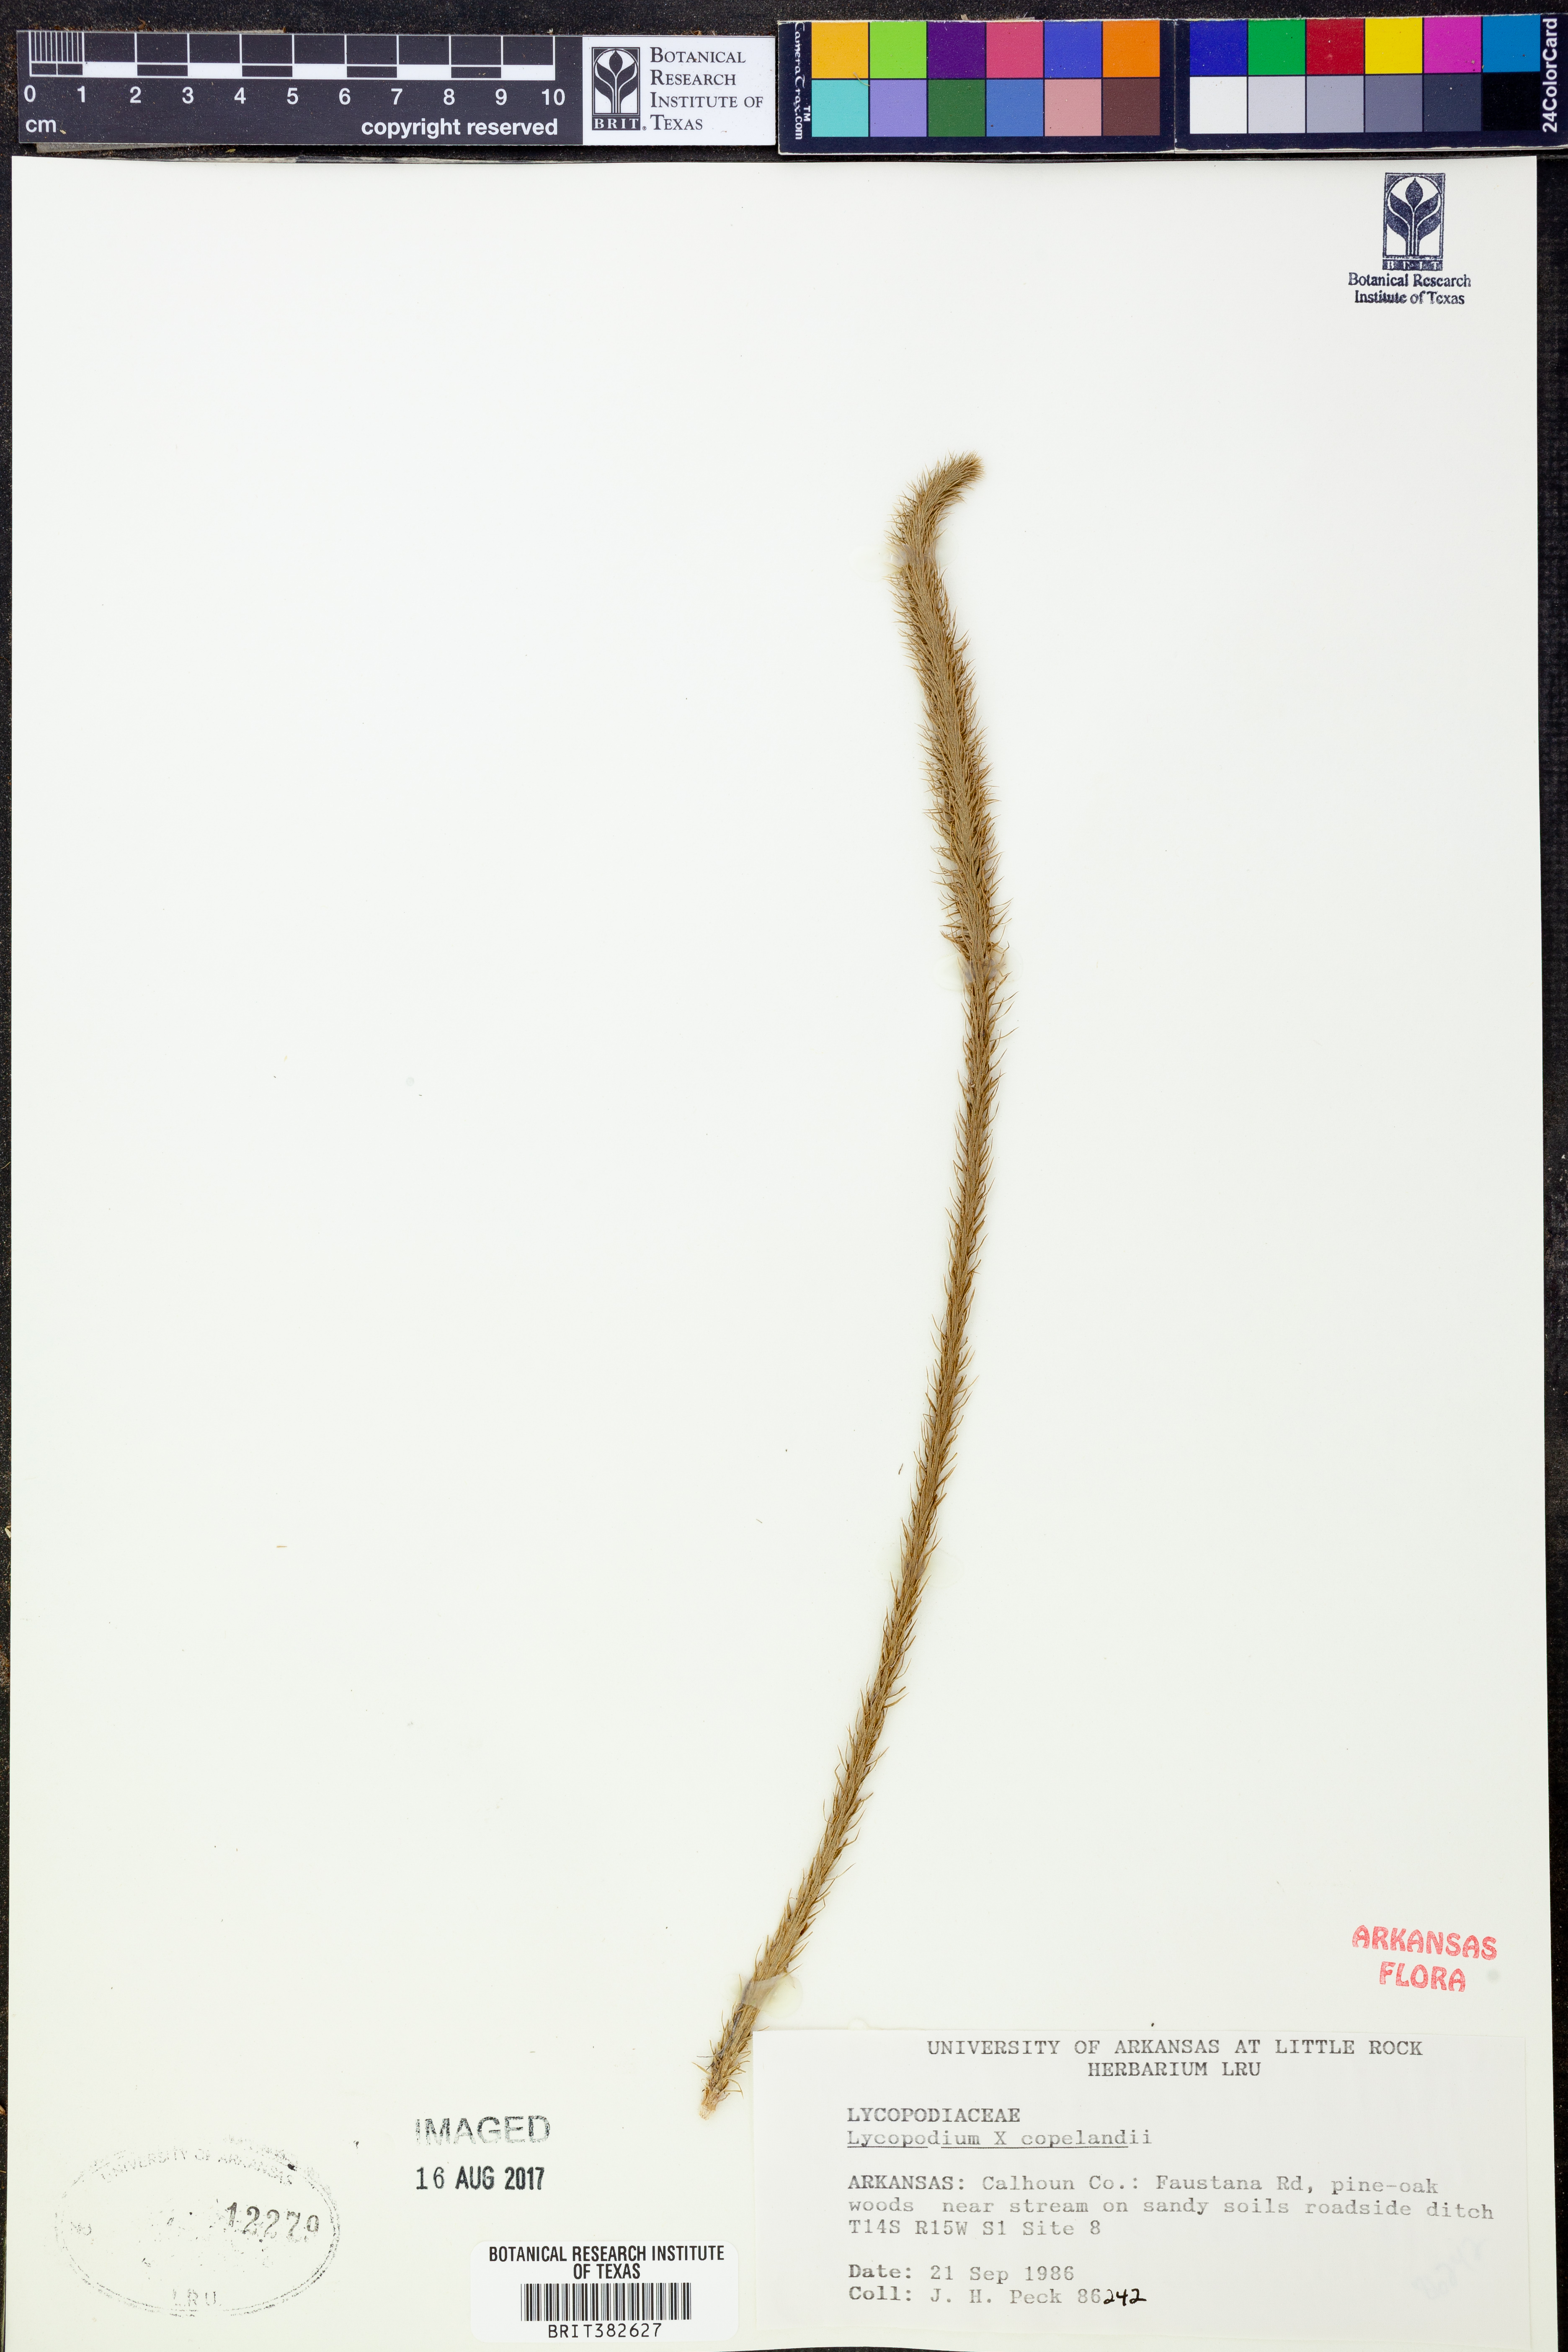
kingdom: Plantae
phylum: Tracheophyta
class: Lycopodiopsida
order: Lycopodiales
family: Lycopodiaceae
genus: Lycopodiella
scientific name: Lycopodiella copelandii
